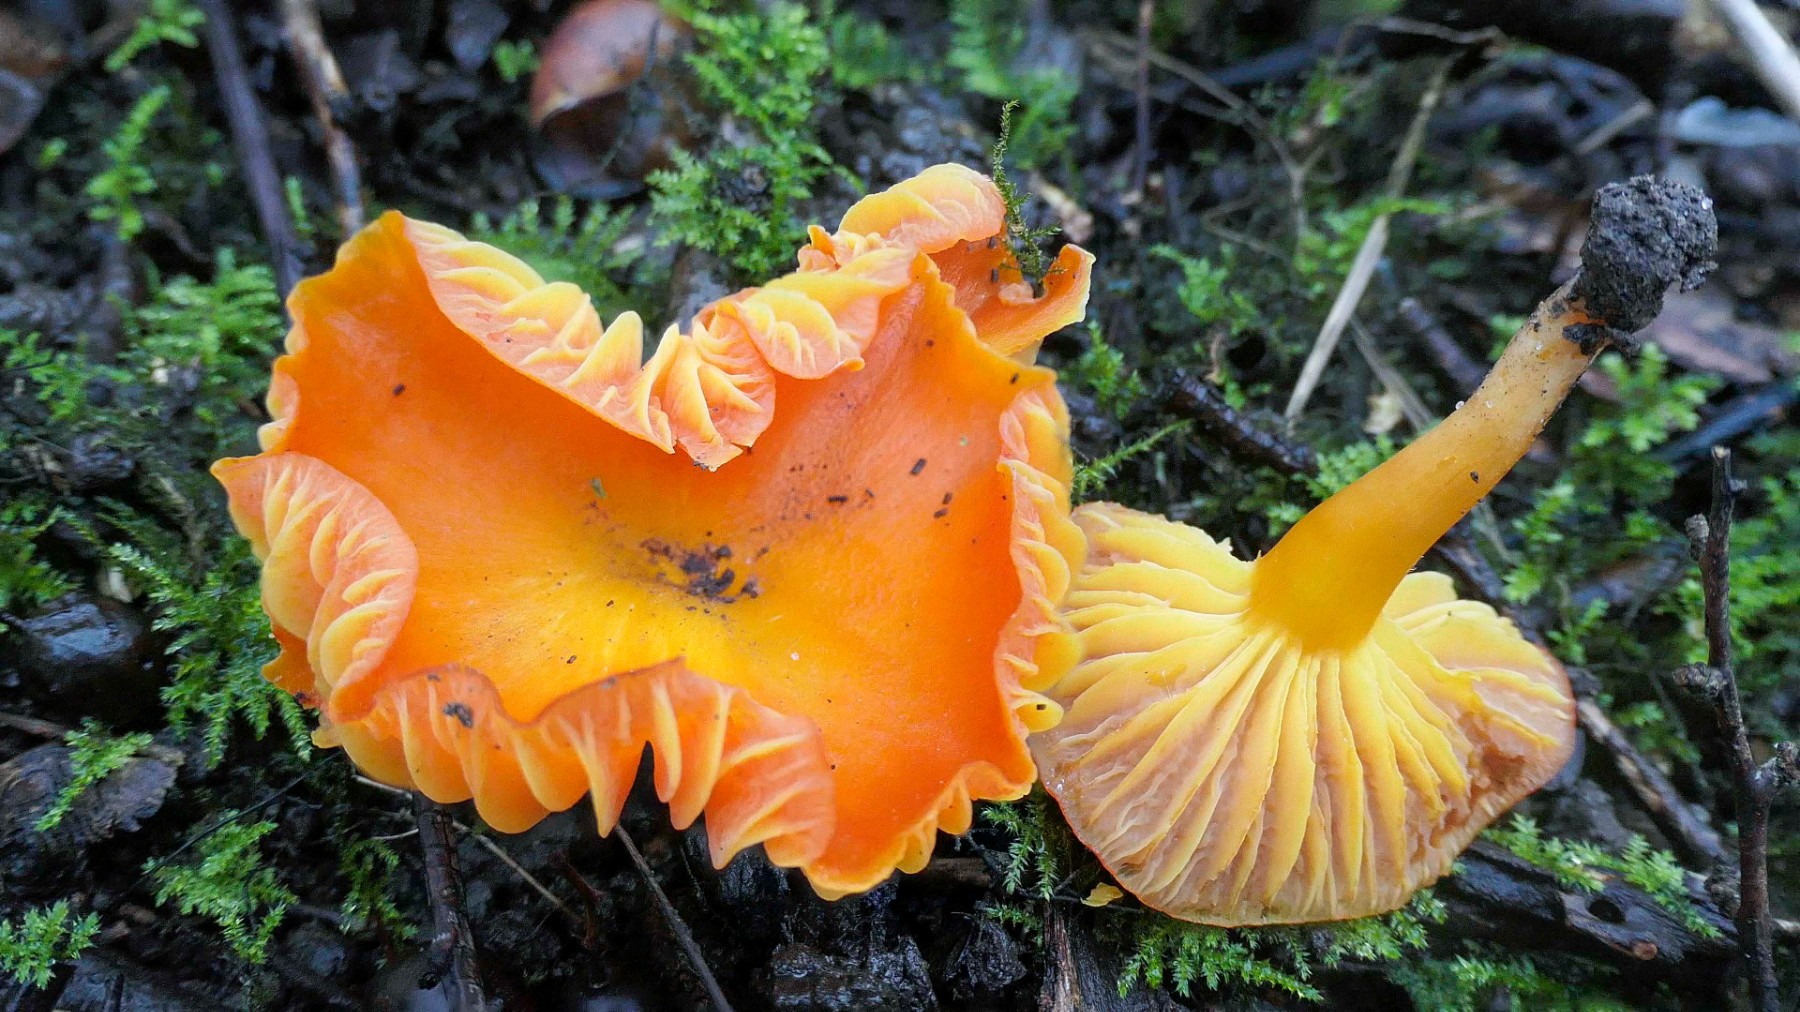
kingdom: Fungi
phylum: Basidiomycota
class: Agaricomycetes
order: Agaricales
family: Hygrophoraceae
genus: Hygrocybe
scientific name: Hygrocybe miniata
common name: mønje-vokshat
